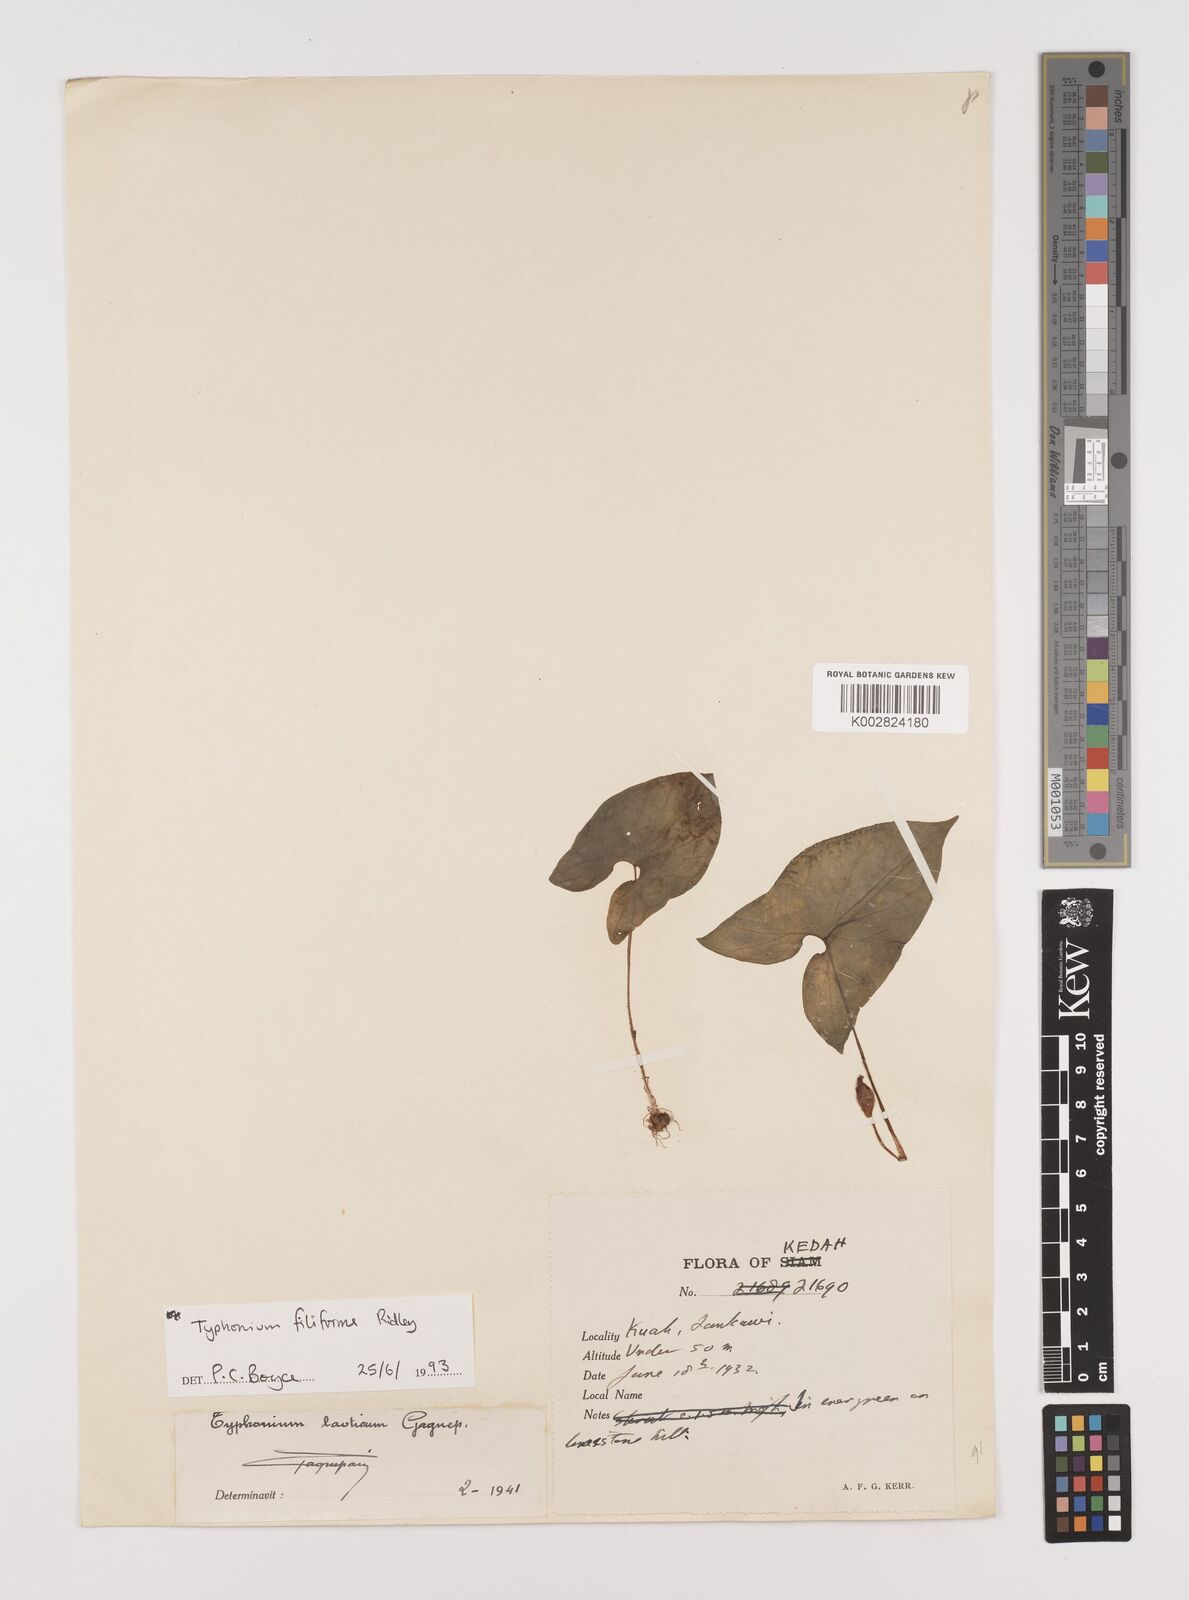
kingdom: Plantae
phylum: Tracheophyta
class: Liliopsida
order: Alismatales
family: Araceae
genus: Typhonium
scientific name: Typhonium filiforme
